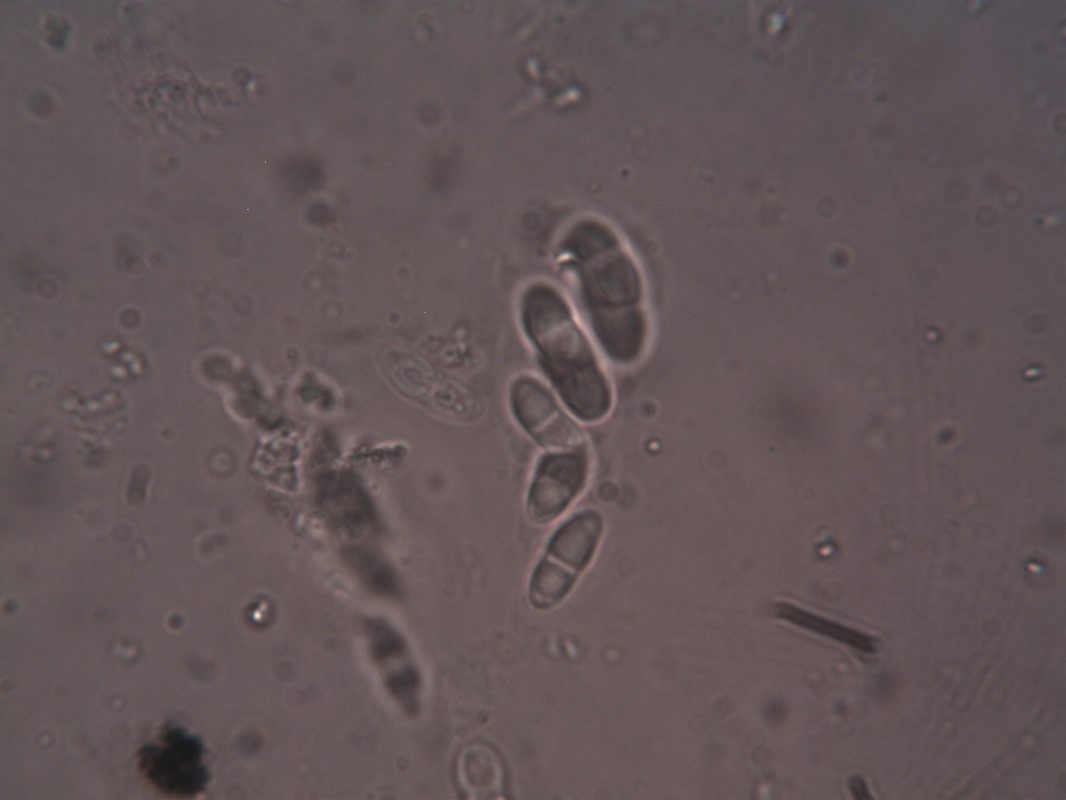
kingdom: Fungi
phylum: Ascomycota
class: Lecanoromycetes
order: Lecanorales
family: Byssolomataceae
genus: Fellhanera
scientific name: Fellhanera bouteillei
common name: flaske-tallerkenlav
